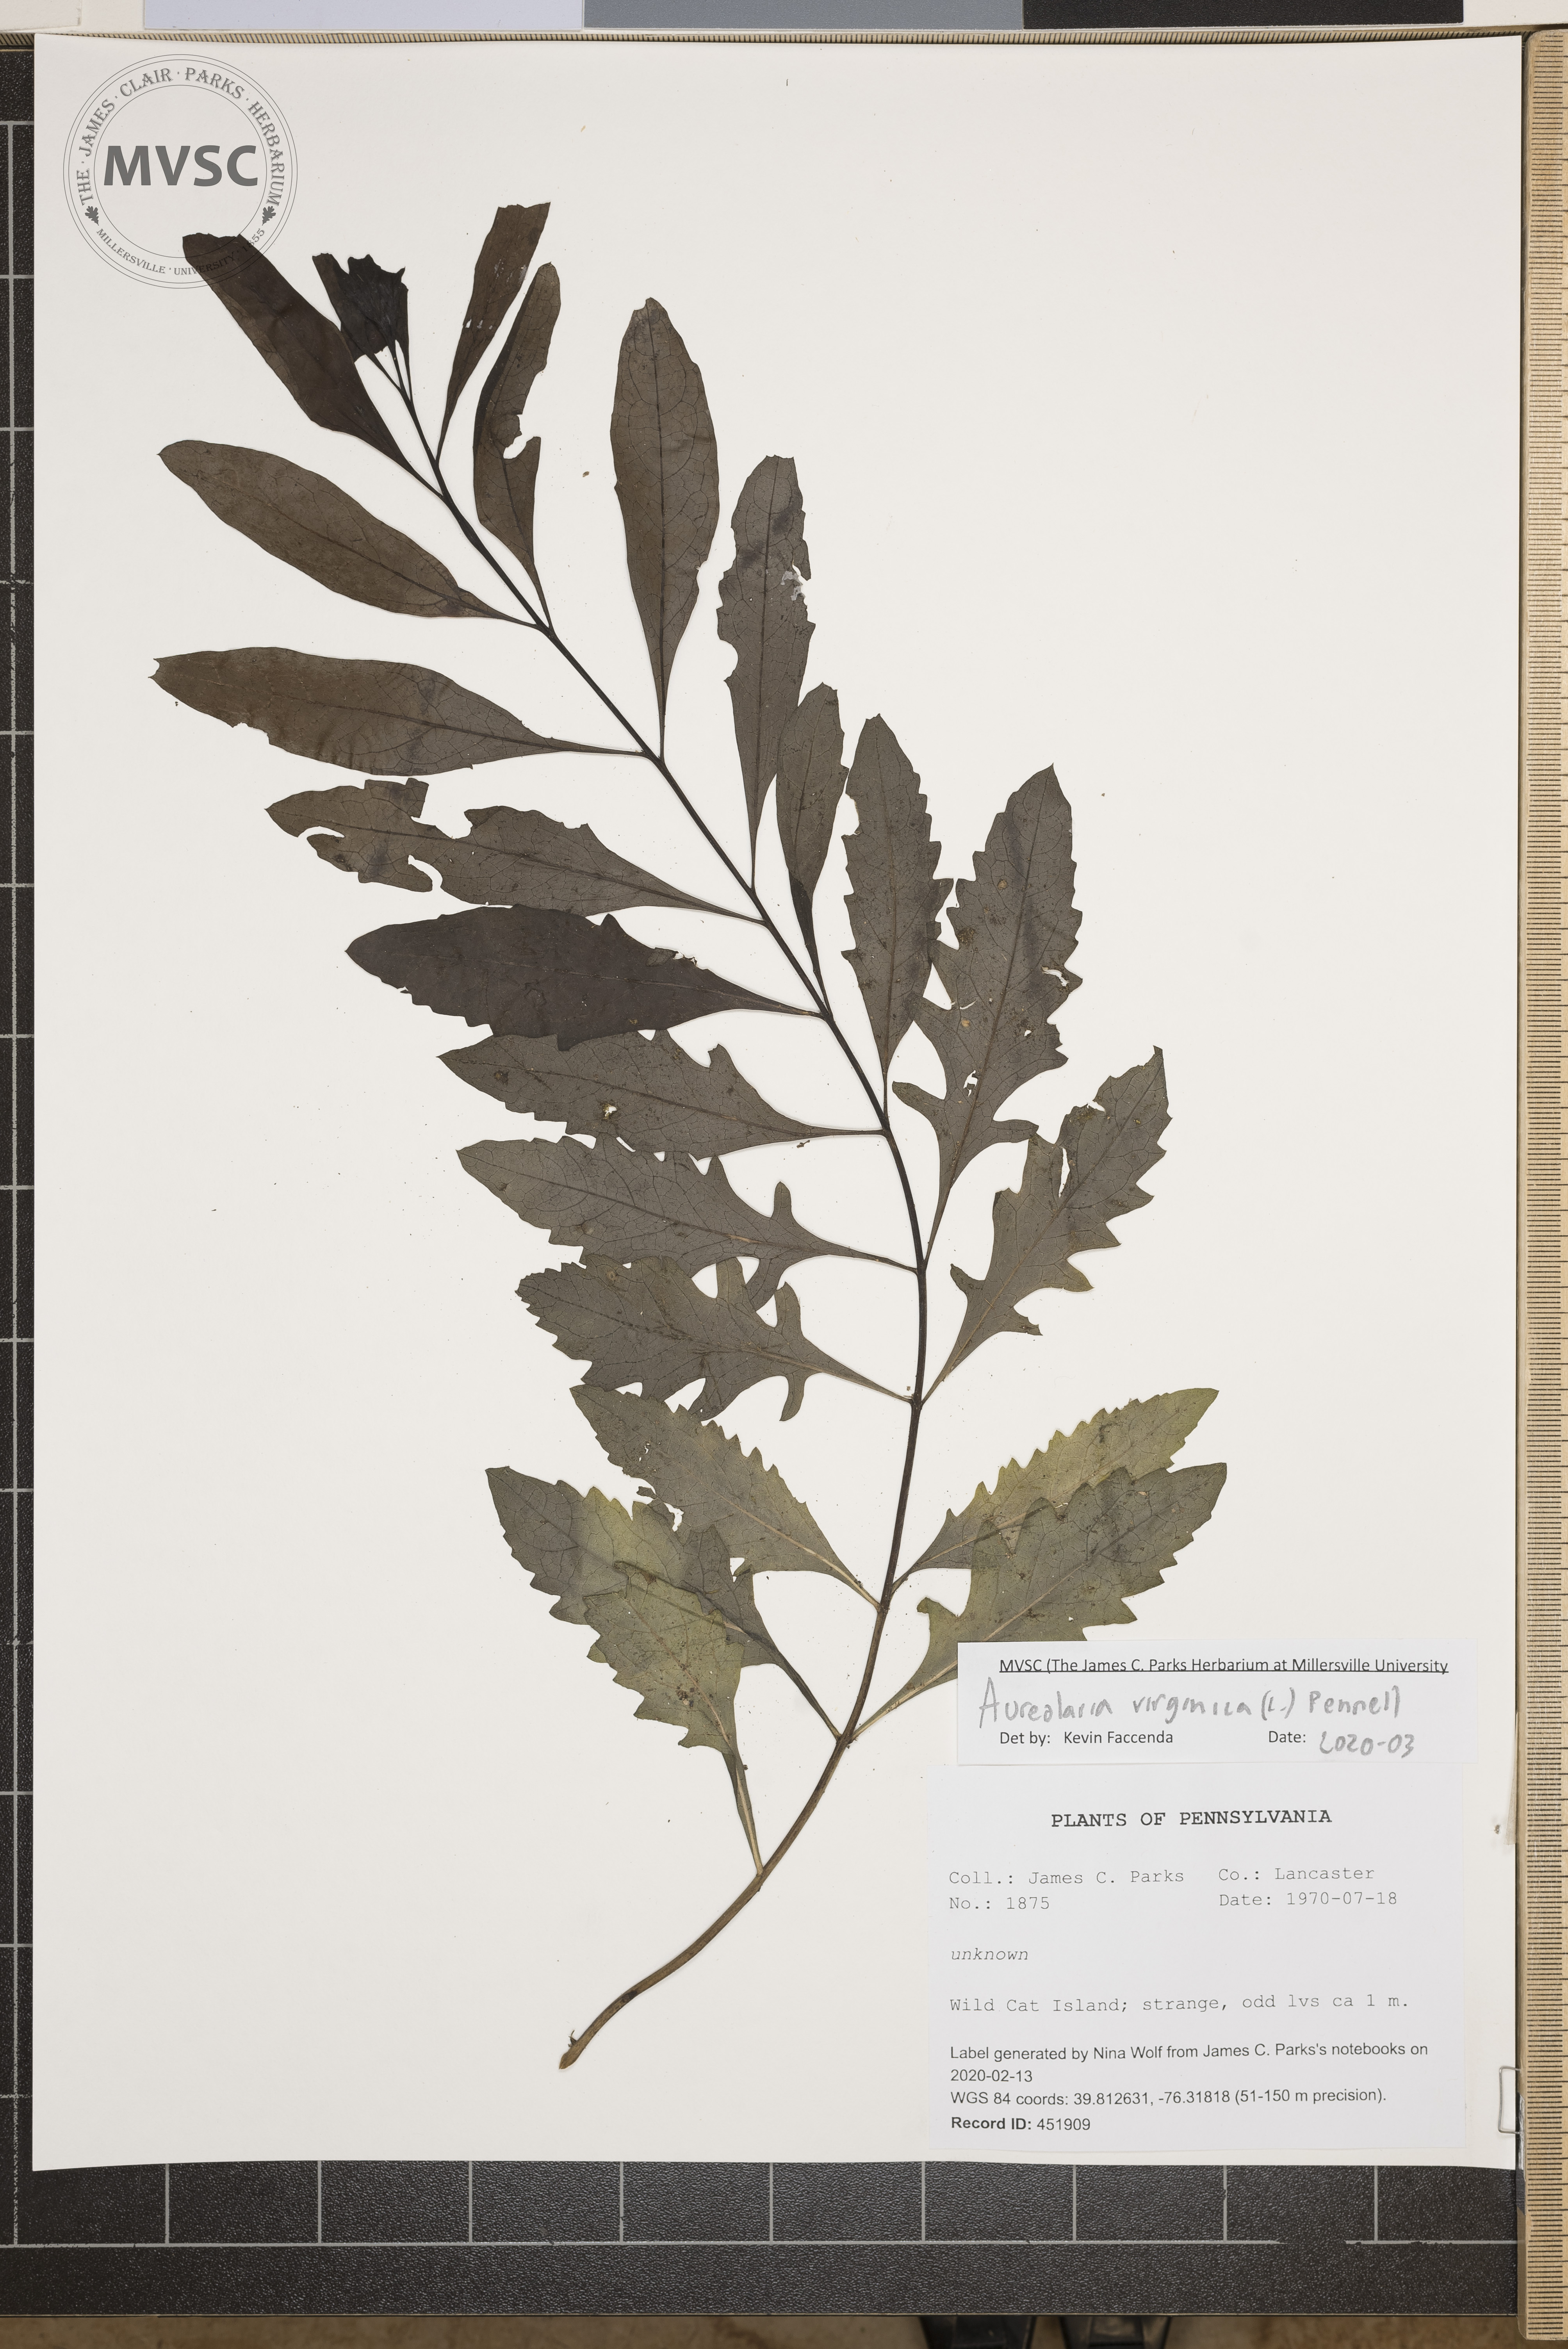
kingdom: Plantae
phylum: Tracheophyta
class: Magnoliopsida
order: Lamiales
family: Orobanchaceae
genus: Aureolaria
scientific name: Aureolaria virginica
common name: Downy false foxglove
